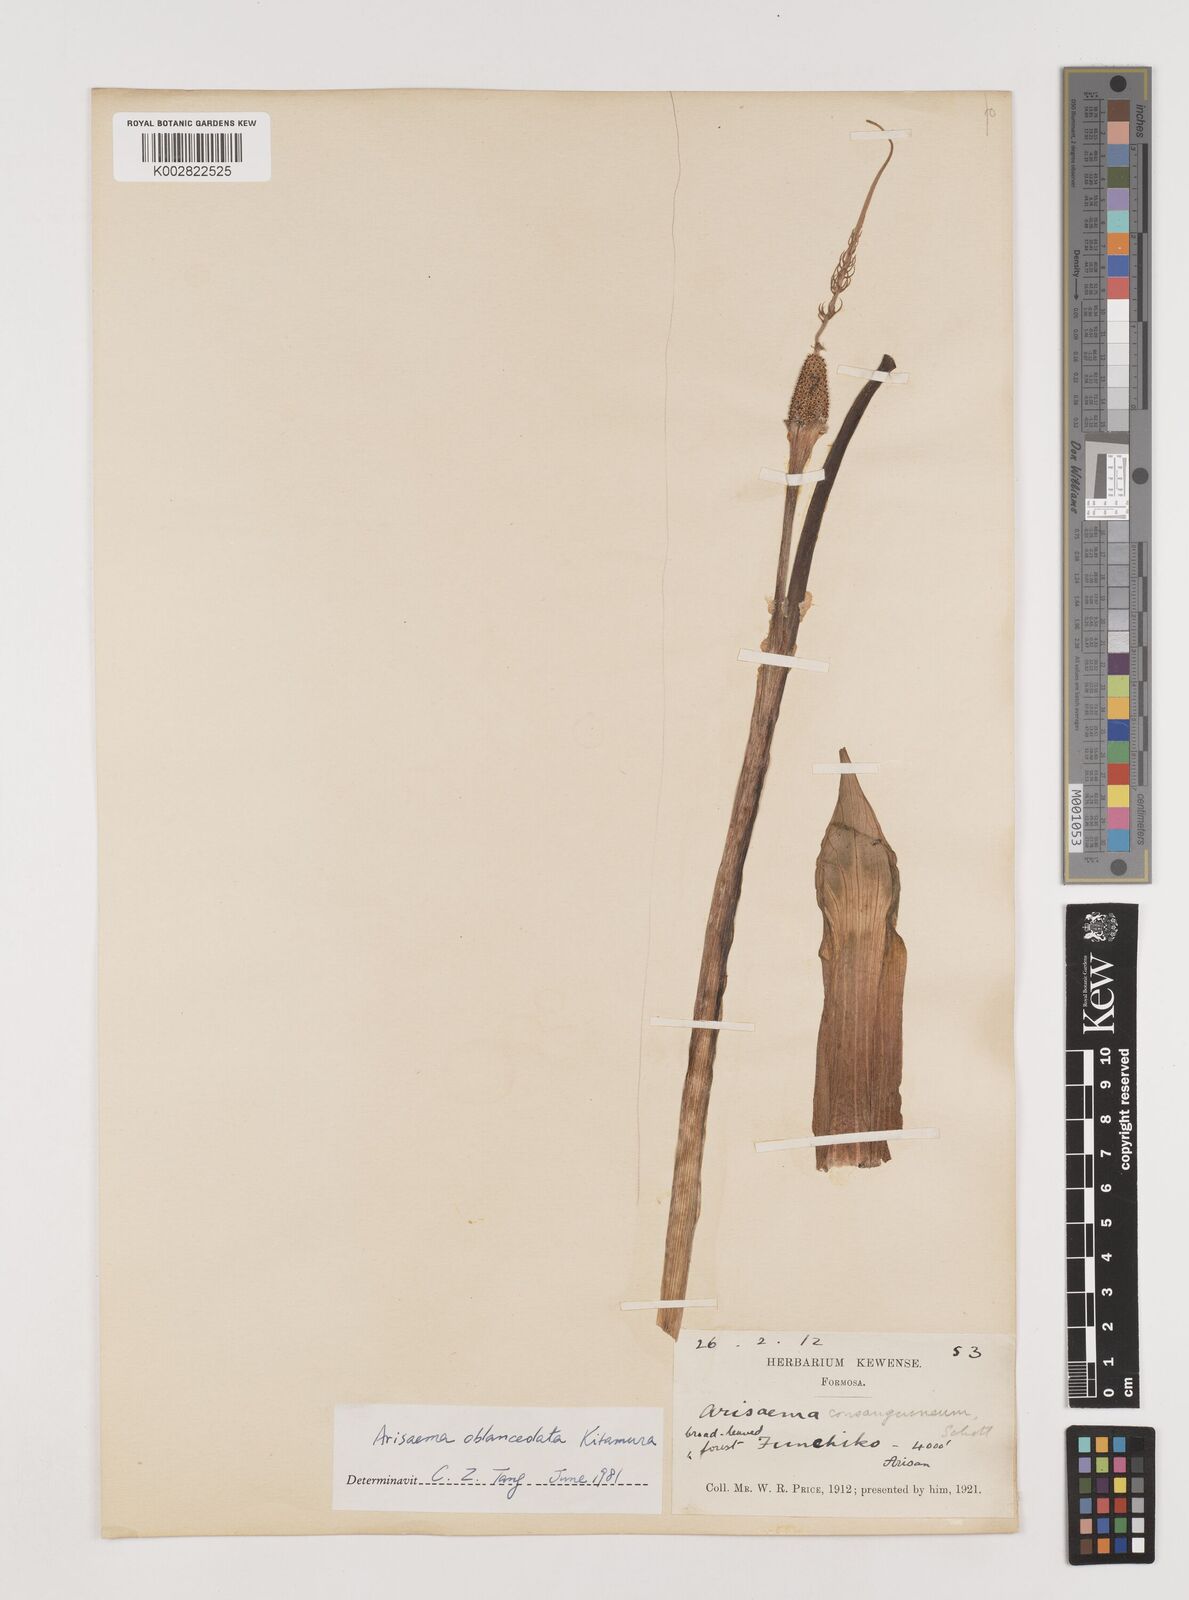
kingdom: Plantae
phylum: Tracheophyta
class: Liliopsida
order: Alismatales
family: Araceae
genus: Arisaema
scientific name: Arisaema formosanum
